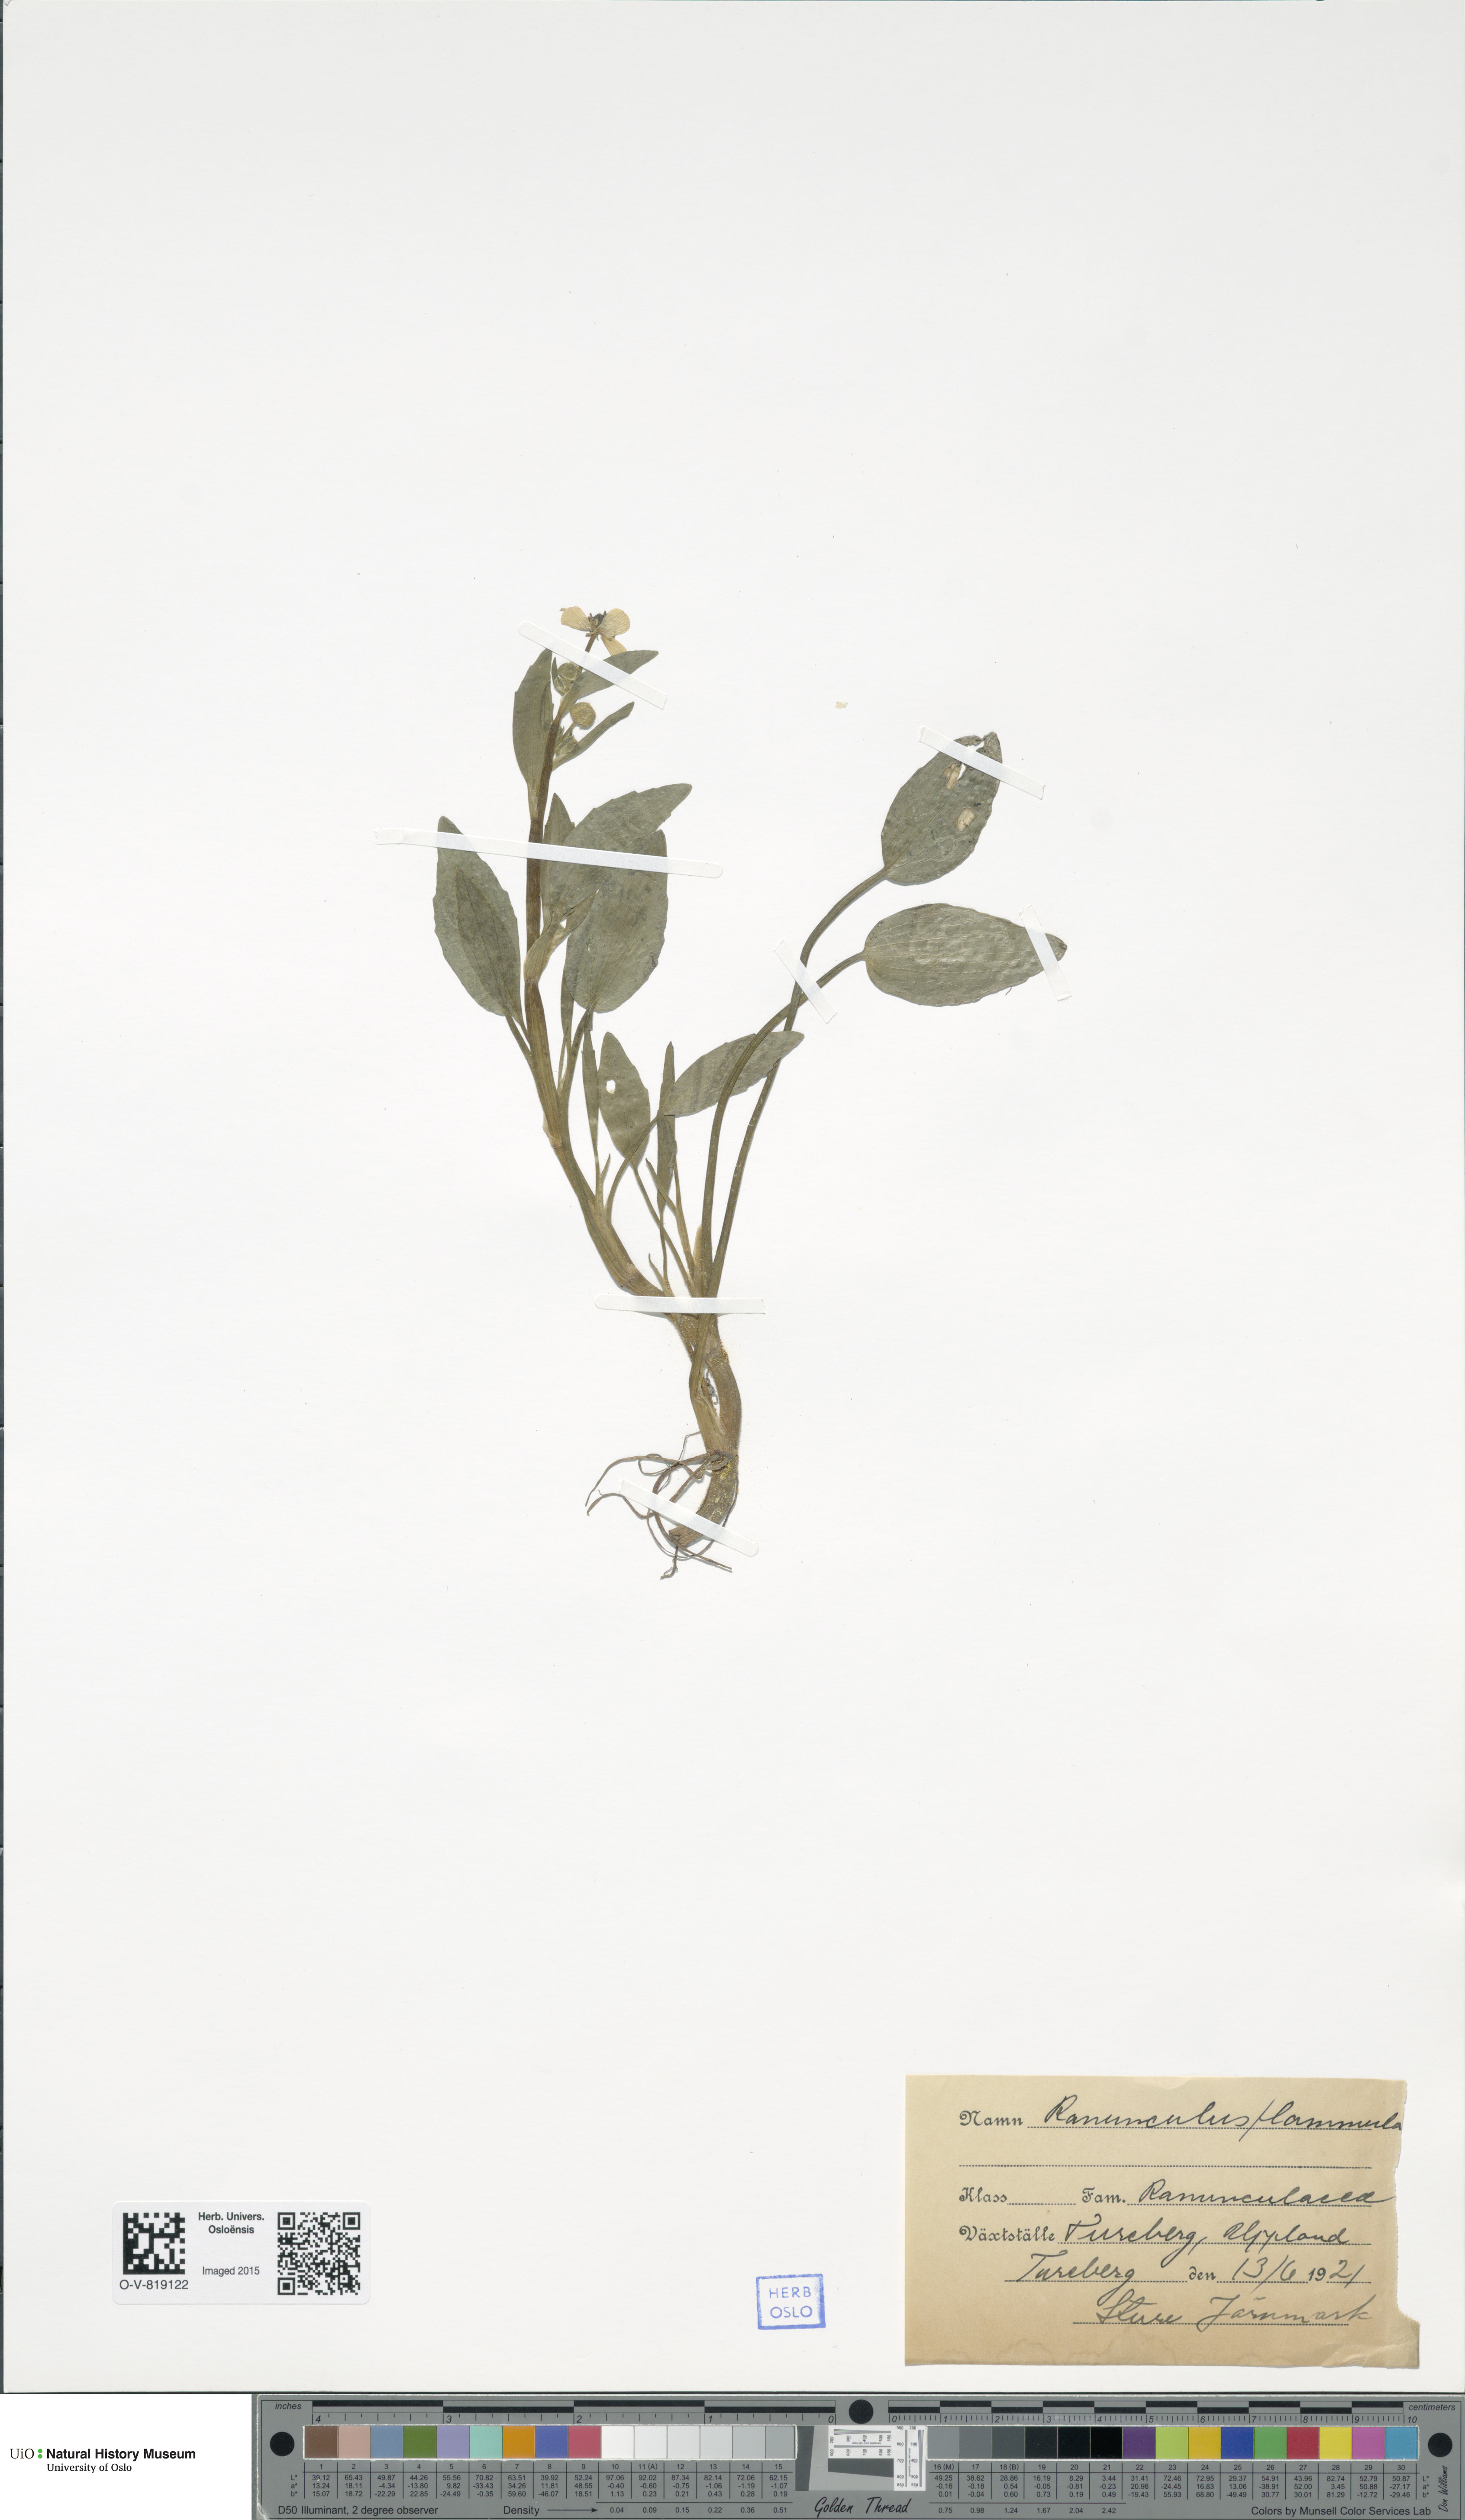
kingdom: Plantae
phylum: Tracheophyta
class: Magnoliopsida
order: Ranunculales
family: Ranunculaceae
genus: Ranunculus
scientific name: Ranunculus flammula
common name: Lesser spearwort
